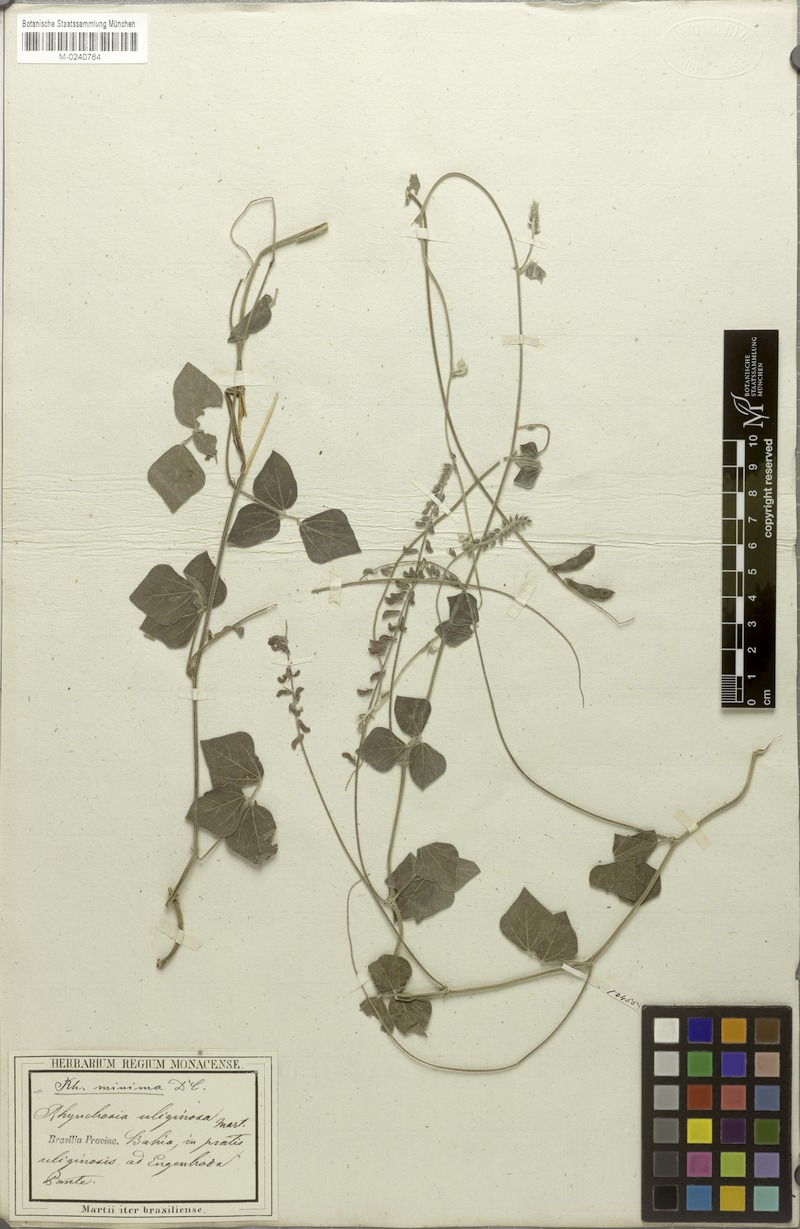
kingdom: Plantae
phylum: Tracheophyta
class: Magnoliopsida
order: Fabales
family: Fabaceae
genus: Rhynchosia
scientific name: Rhynchosia minima
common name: Least snoutbean
